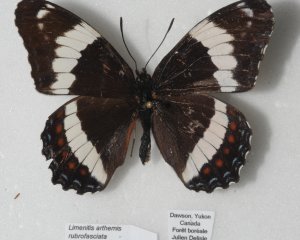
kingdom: Animalia
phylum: Arthropoda
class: Insecta
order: Lepidoptera
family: Nymphalidae
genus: Limenitis
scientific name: Limenitis arthemis
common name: Red-spotted Admiral
